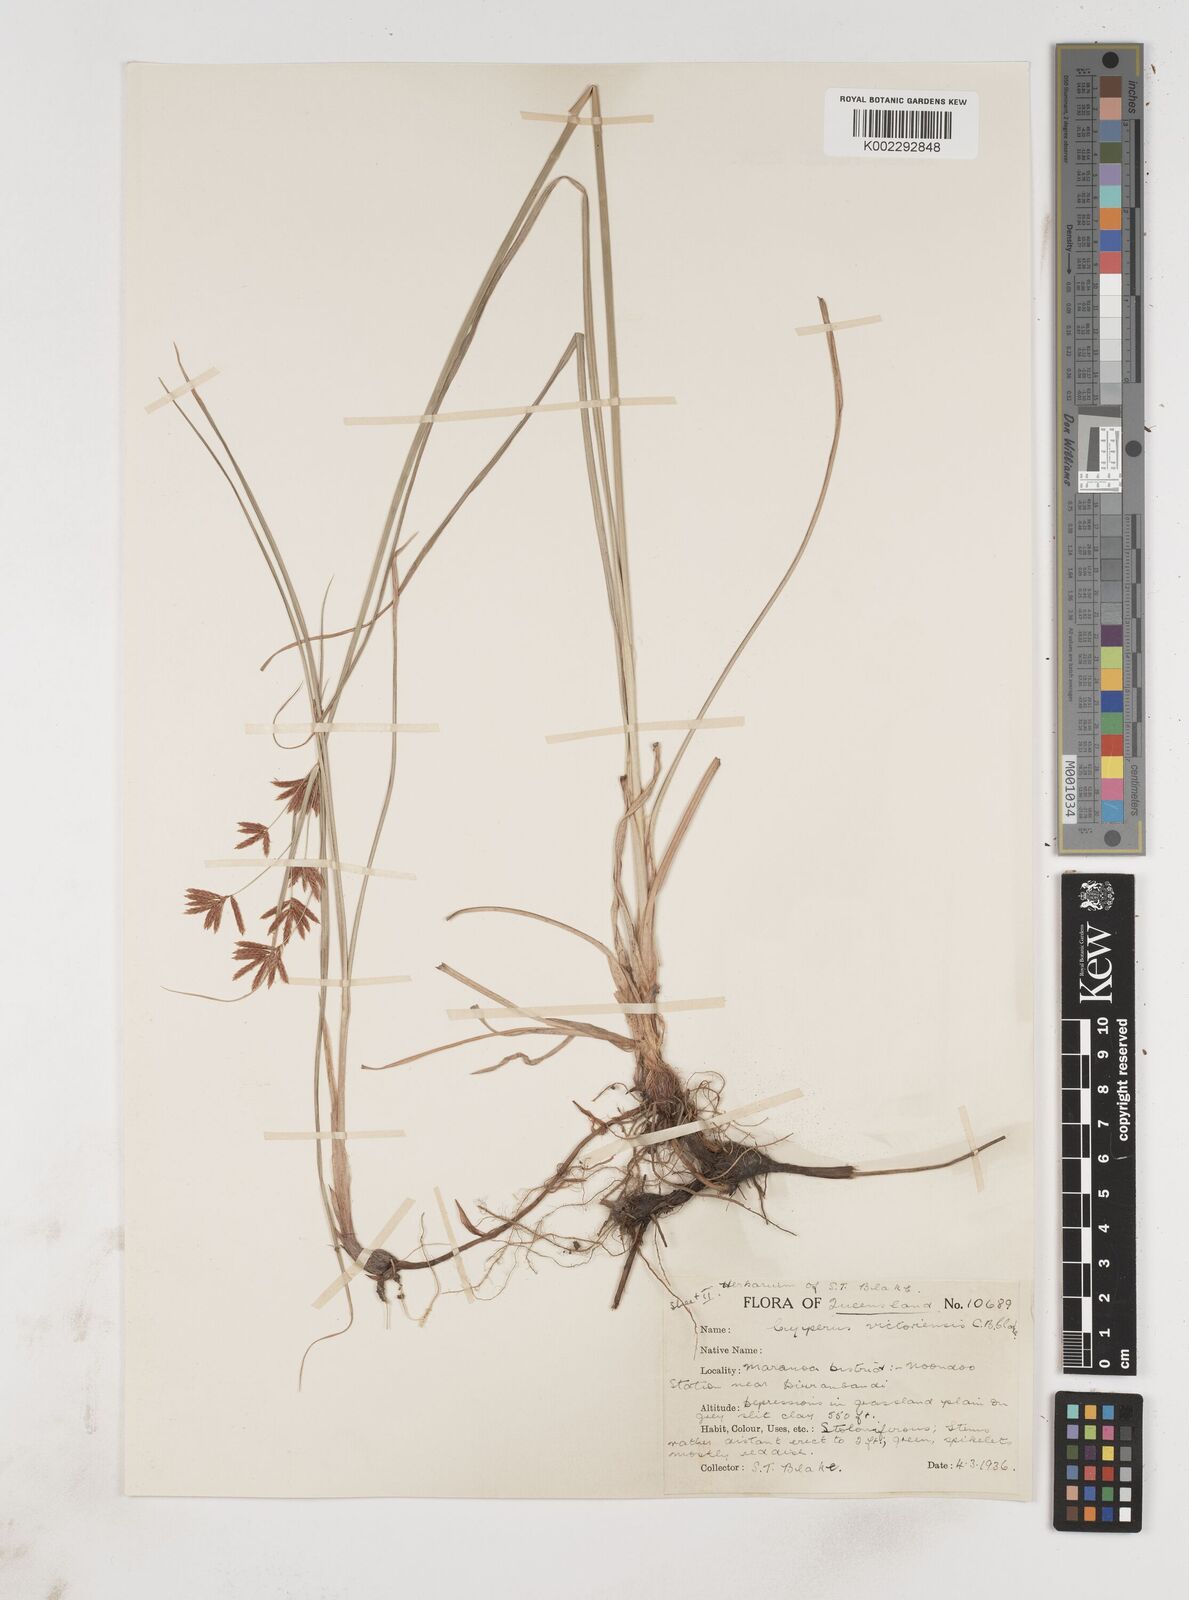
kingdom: Plantae
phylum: Tracheophyta
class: Liliopsida
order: Poales
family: Cyperaceae
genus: Cyperus
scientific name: Cyperus victoriensis
